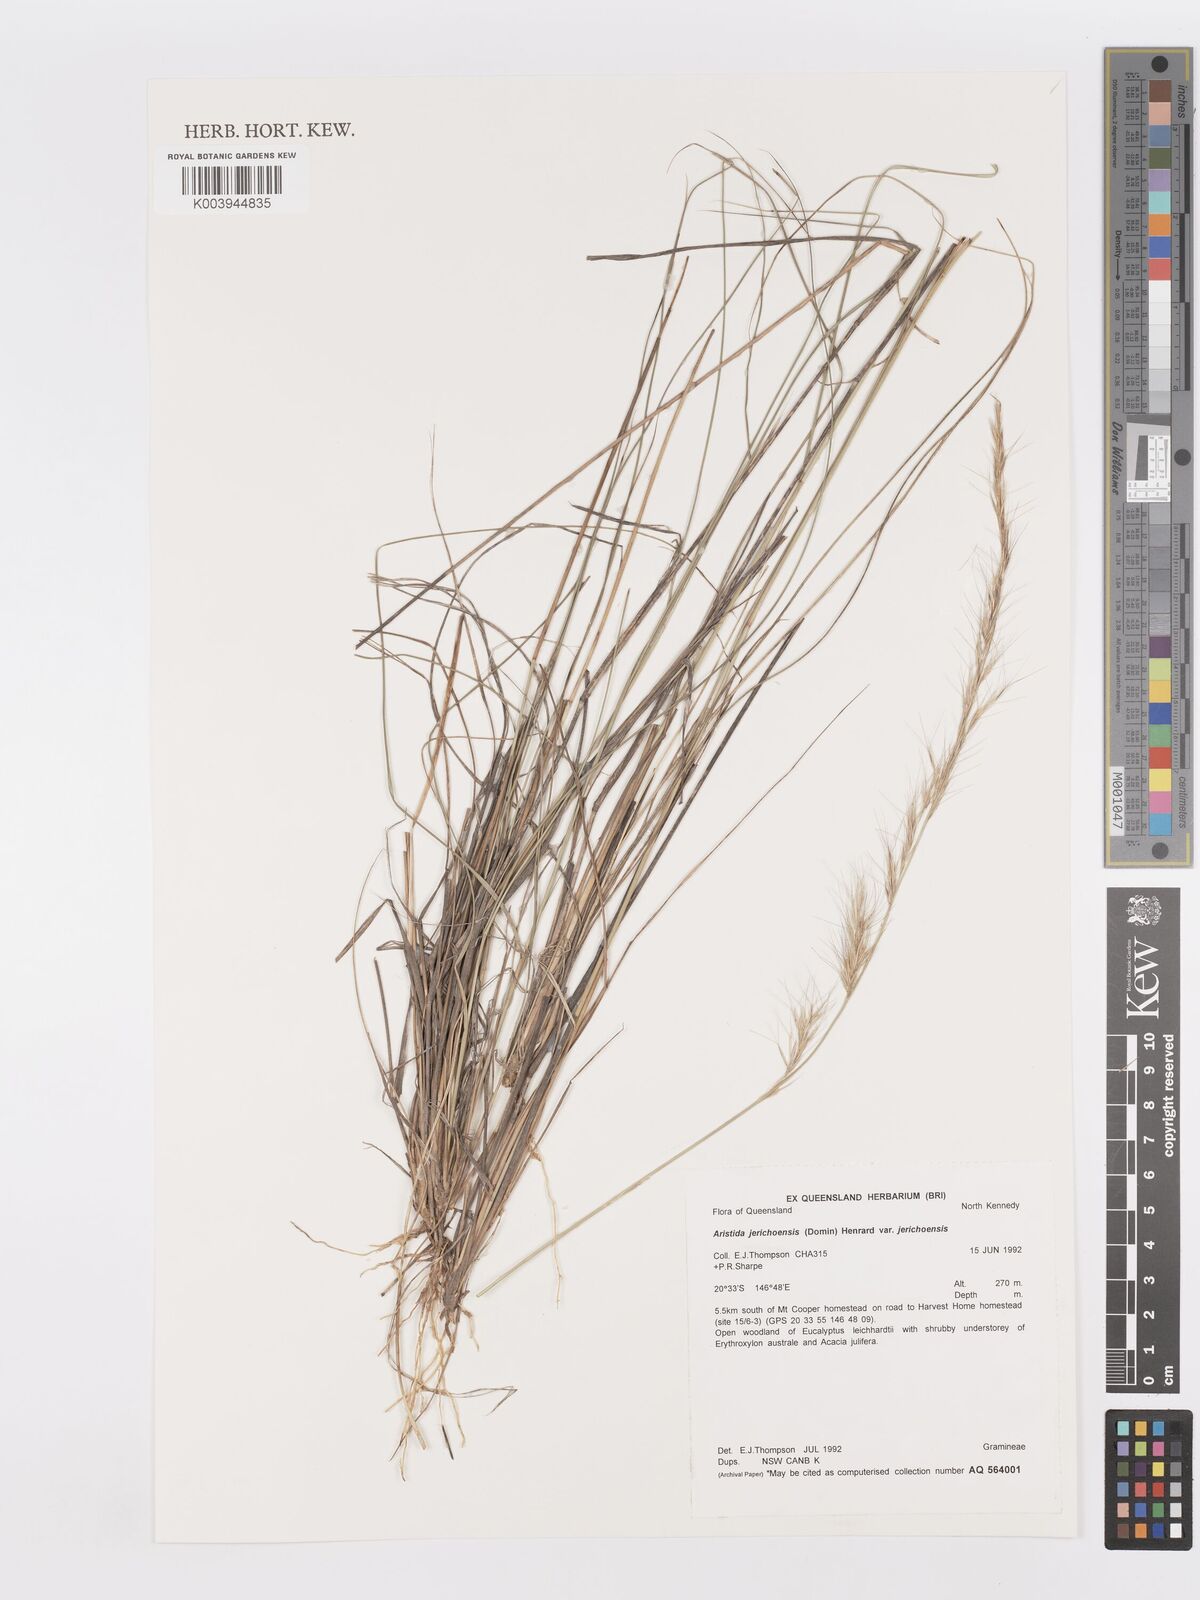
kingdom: Plantae
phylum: Tracheophyta
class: Liliopsida
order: Poales
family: Poaceae
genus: Aristida
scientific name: Aristida jerichoensis
